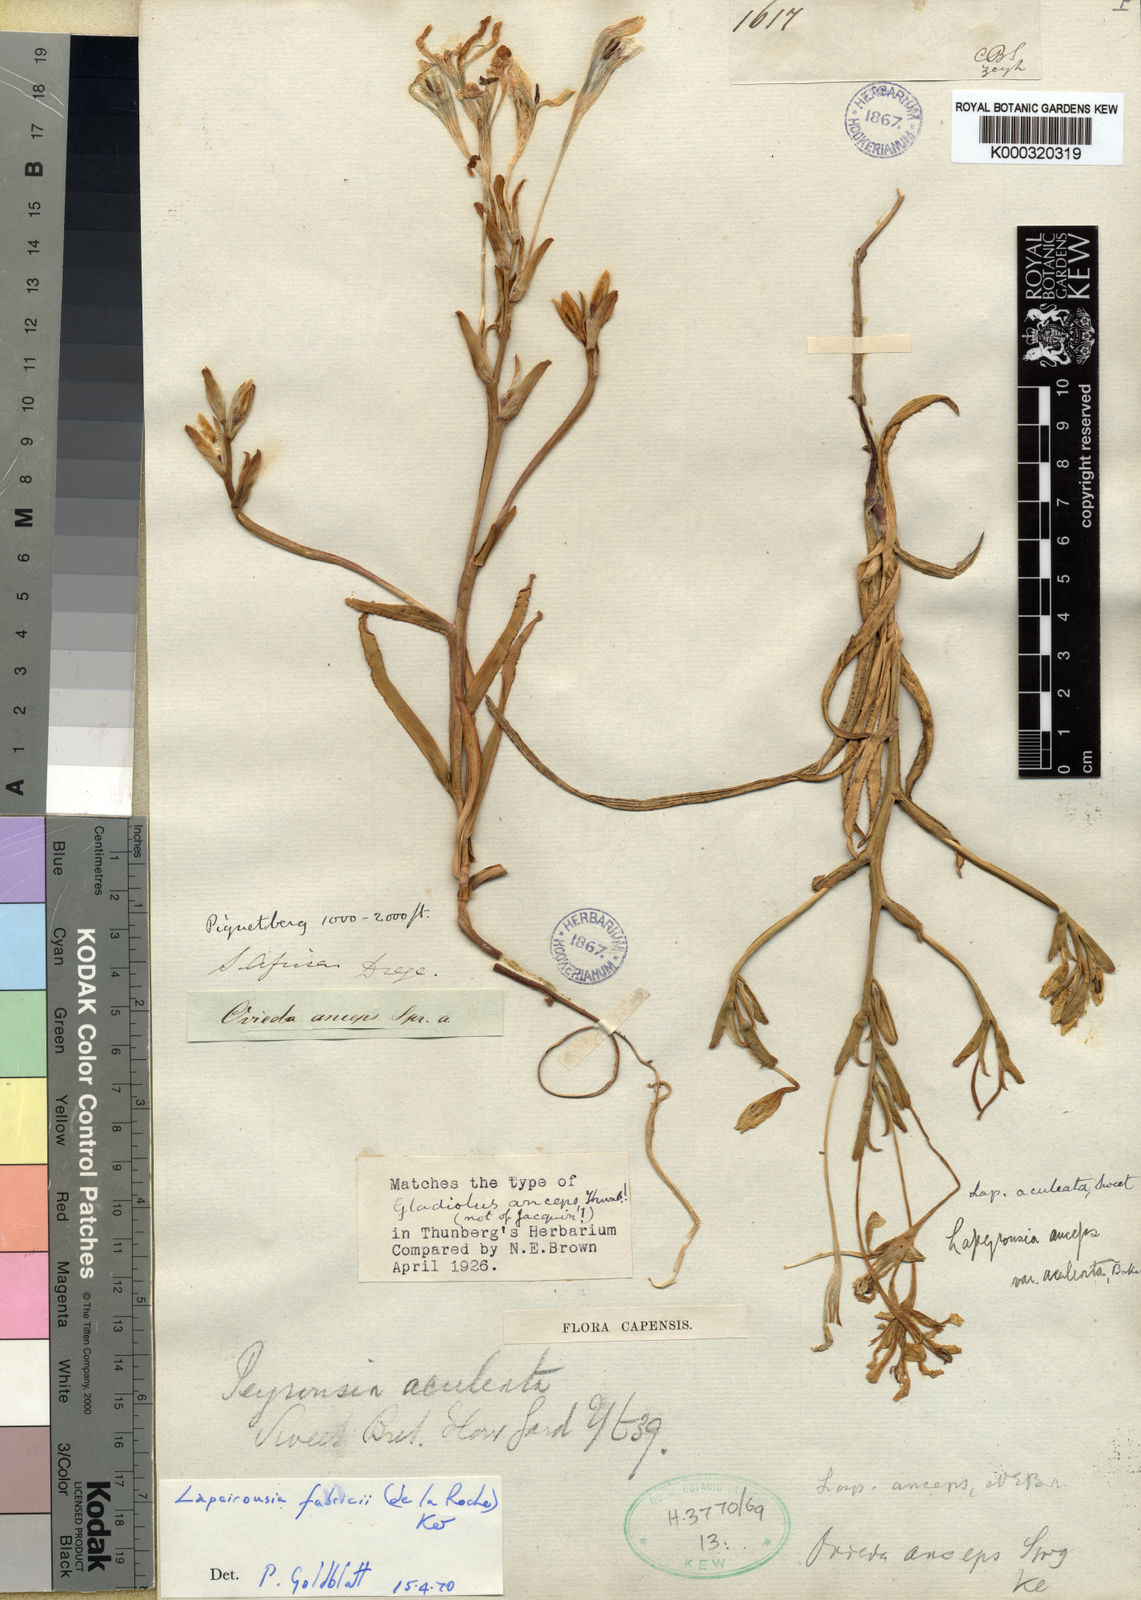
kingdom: Plantae
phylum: Tracheophyta
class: Liliopsida
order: Asparagales
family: Iridaceae
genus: Lapeirousia
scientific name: Lapeirousia fabricii
